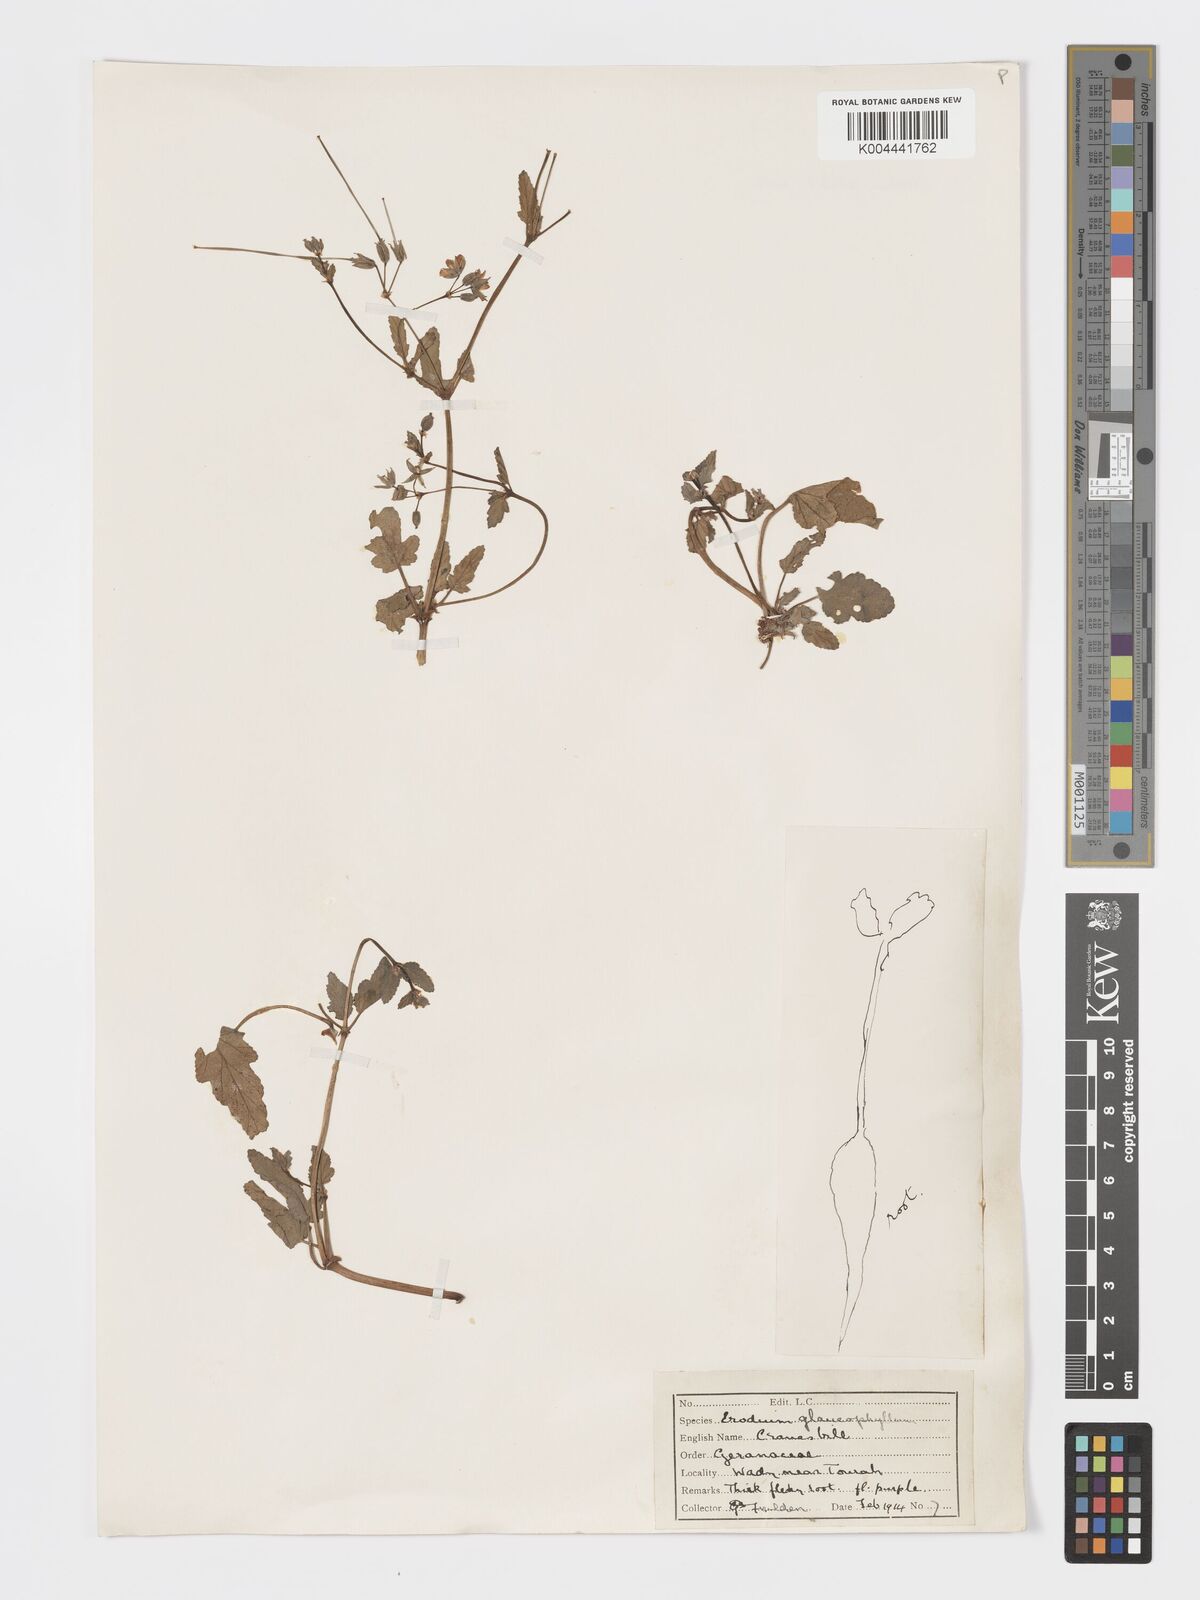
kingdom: Plantae
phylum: Tracheophyta
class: Magnoliopsida
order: Geraniales
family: Geraniaceae
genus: Erodium
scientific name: Erodium glaucophyllum
